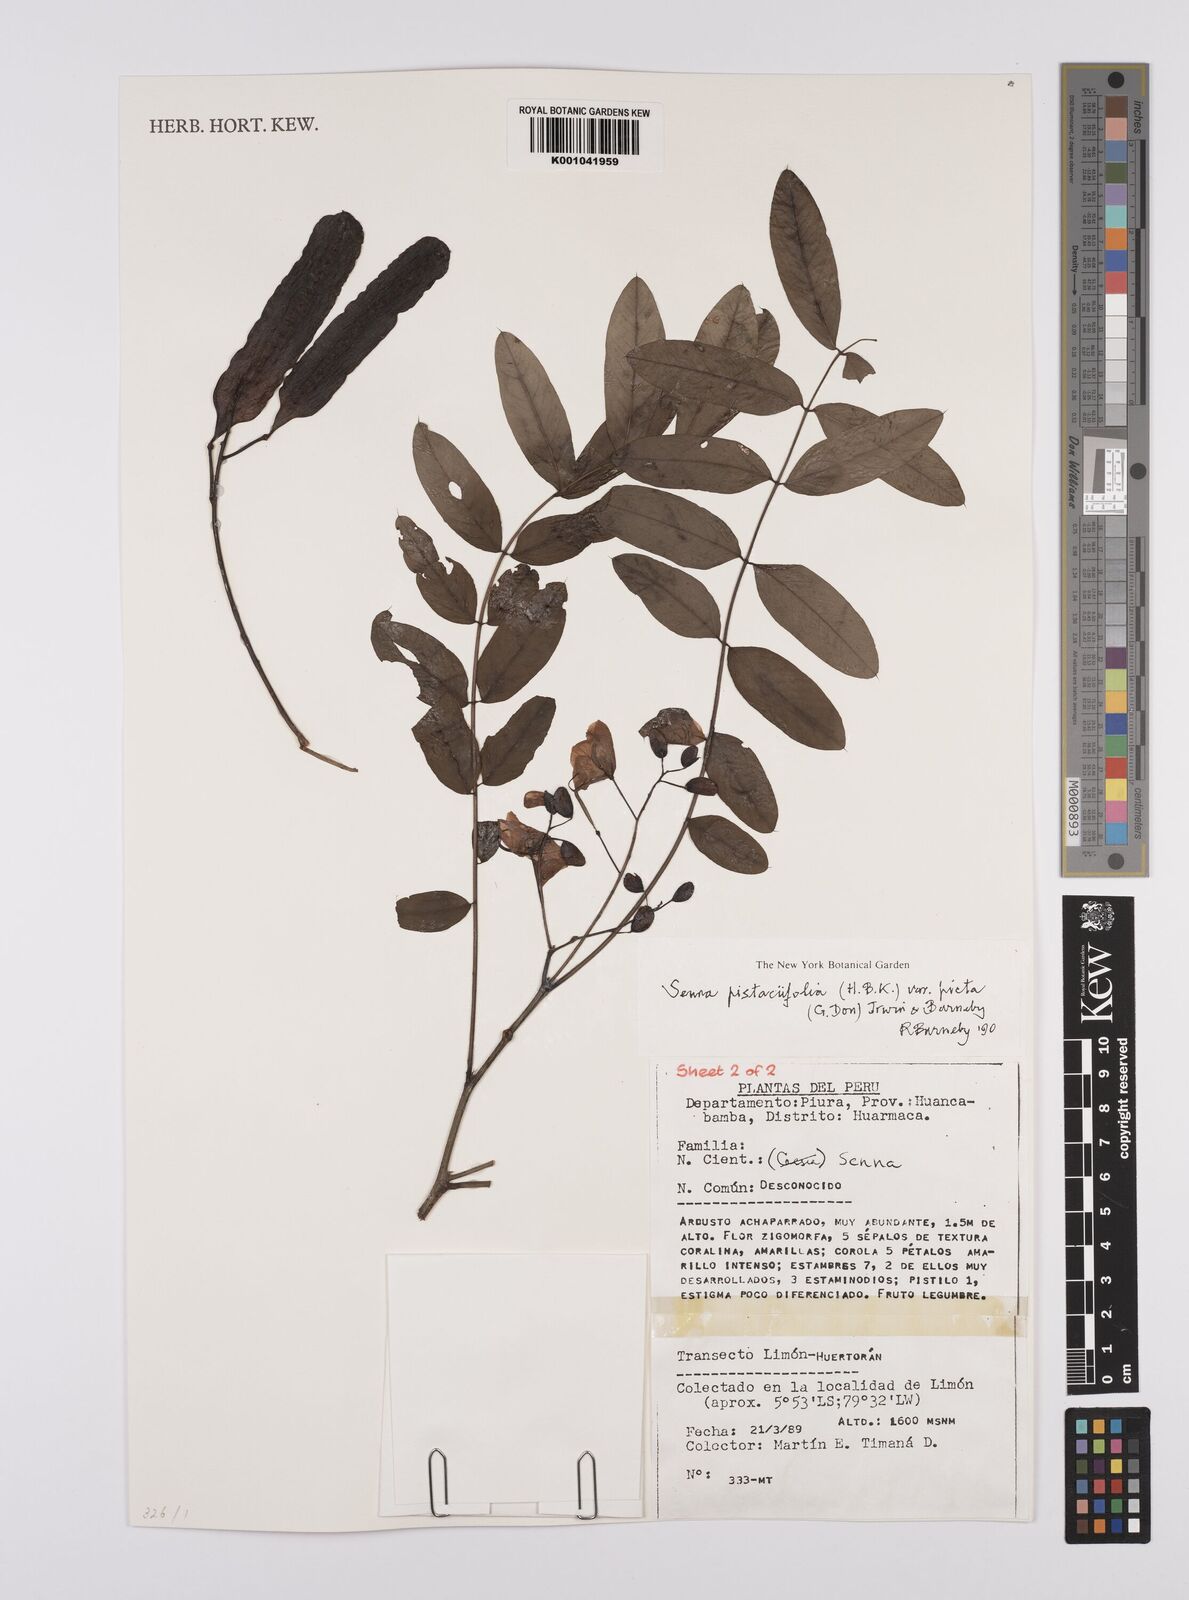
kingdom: Plantae
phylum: Tracheophyta
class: Magnoliopsida
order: Fabales
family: Fabaceae
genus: Senna
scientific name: Senna pistaciifolia
